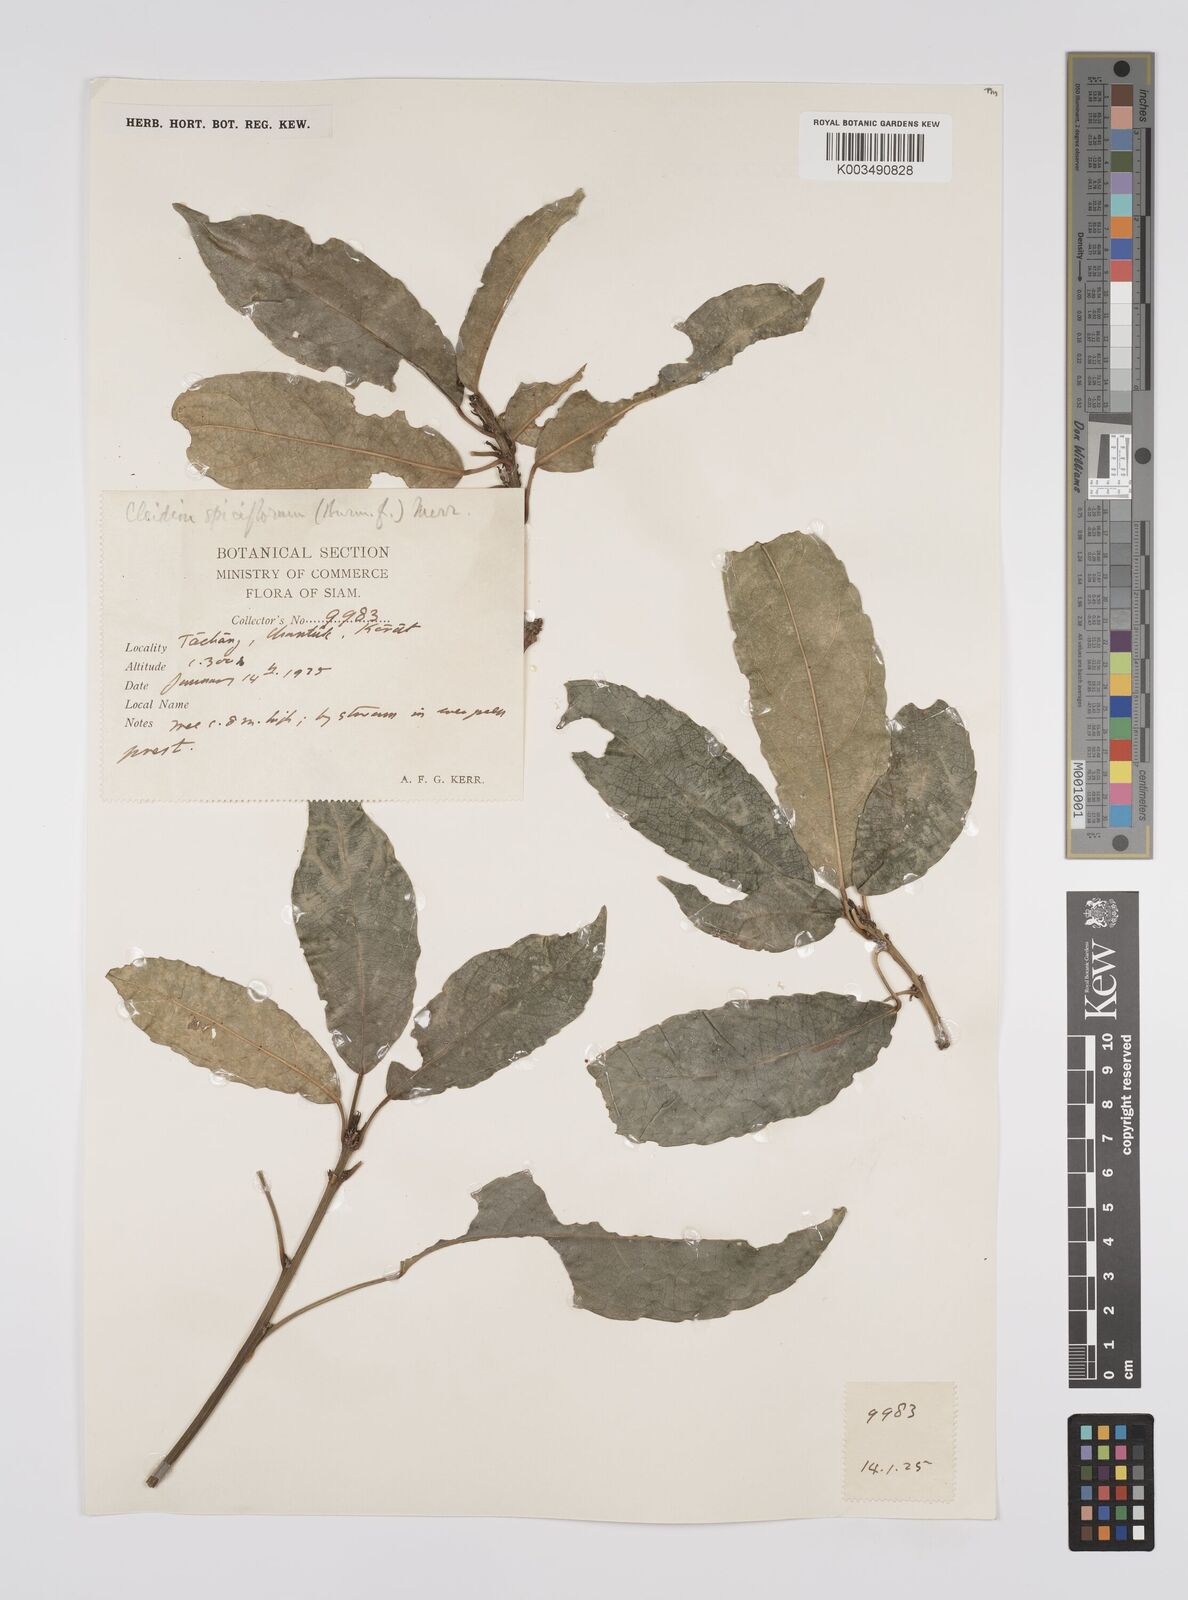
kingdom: Plantae
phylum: Tracheophyta
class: Magnoliopsida
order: Malpighiales
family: Euphorbiaceae
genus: Acalypha
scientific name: Acalypha spiciflora
